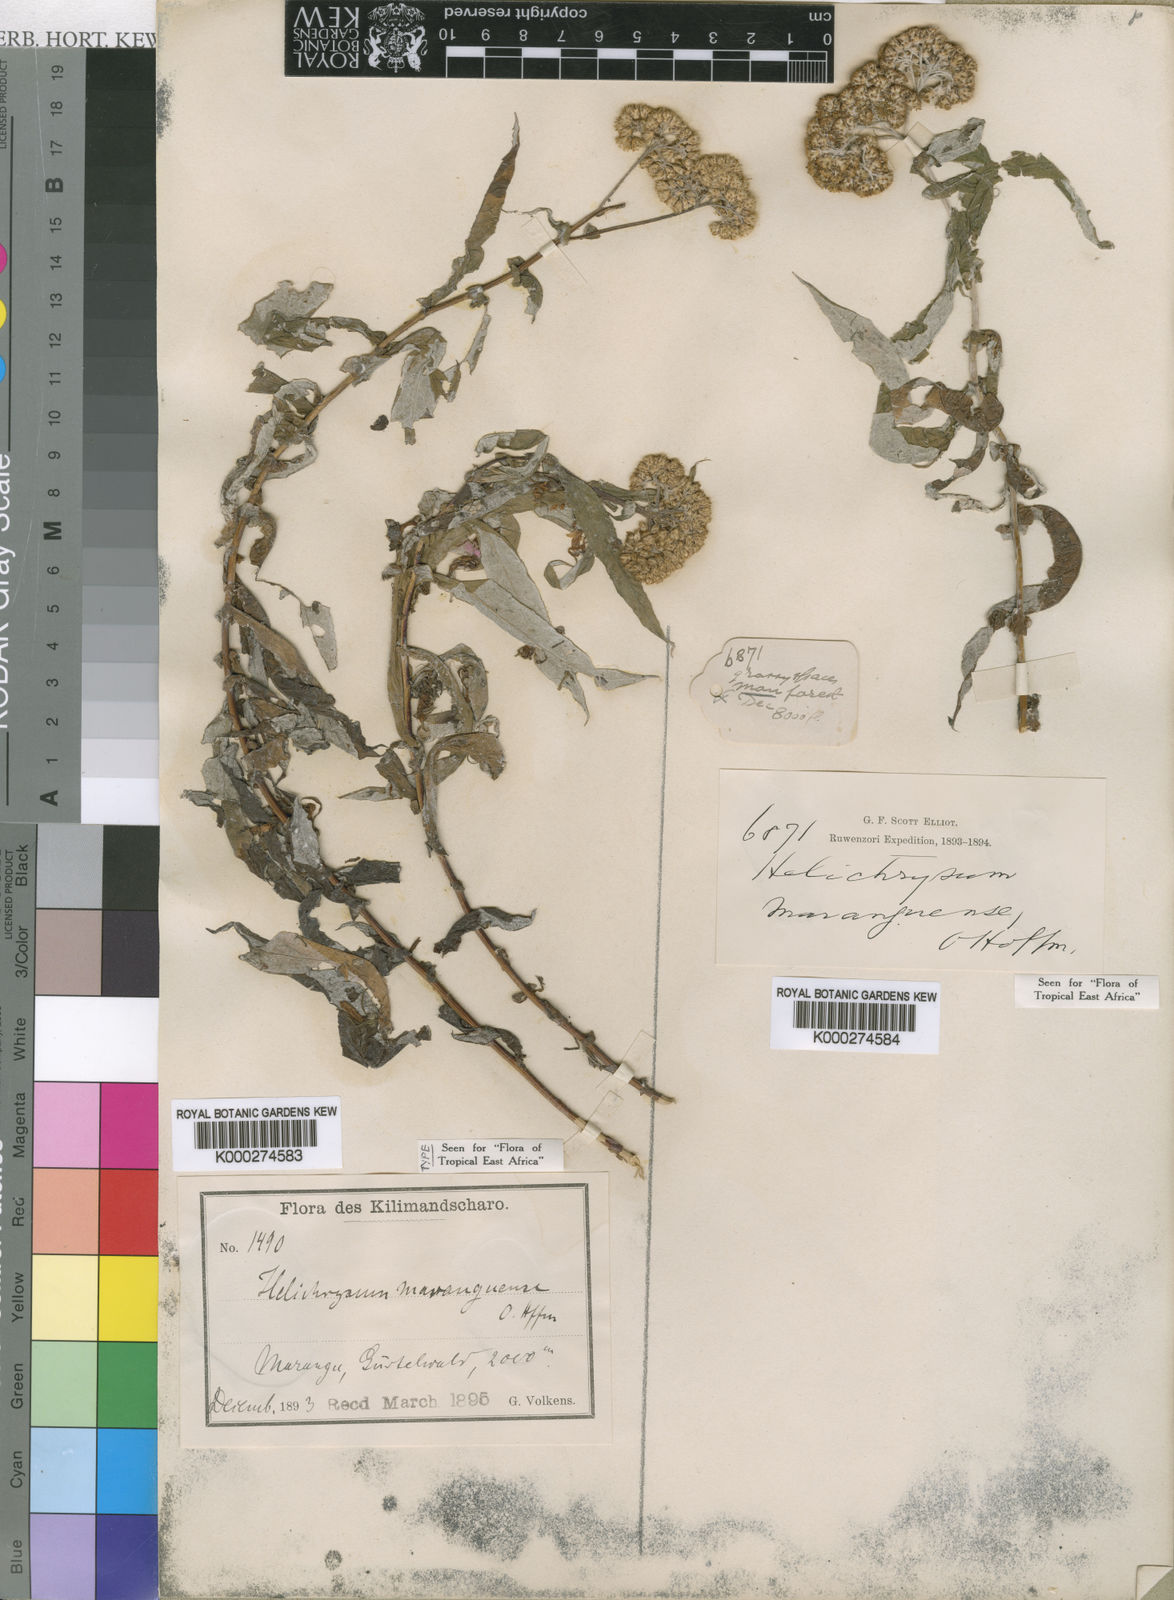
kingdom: Plantae
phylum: Tracheophyta
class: Magnoliopsida
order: Asterales
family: Asteraceae
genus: Helichrysum
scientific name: Helichrysum maranguense
